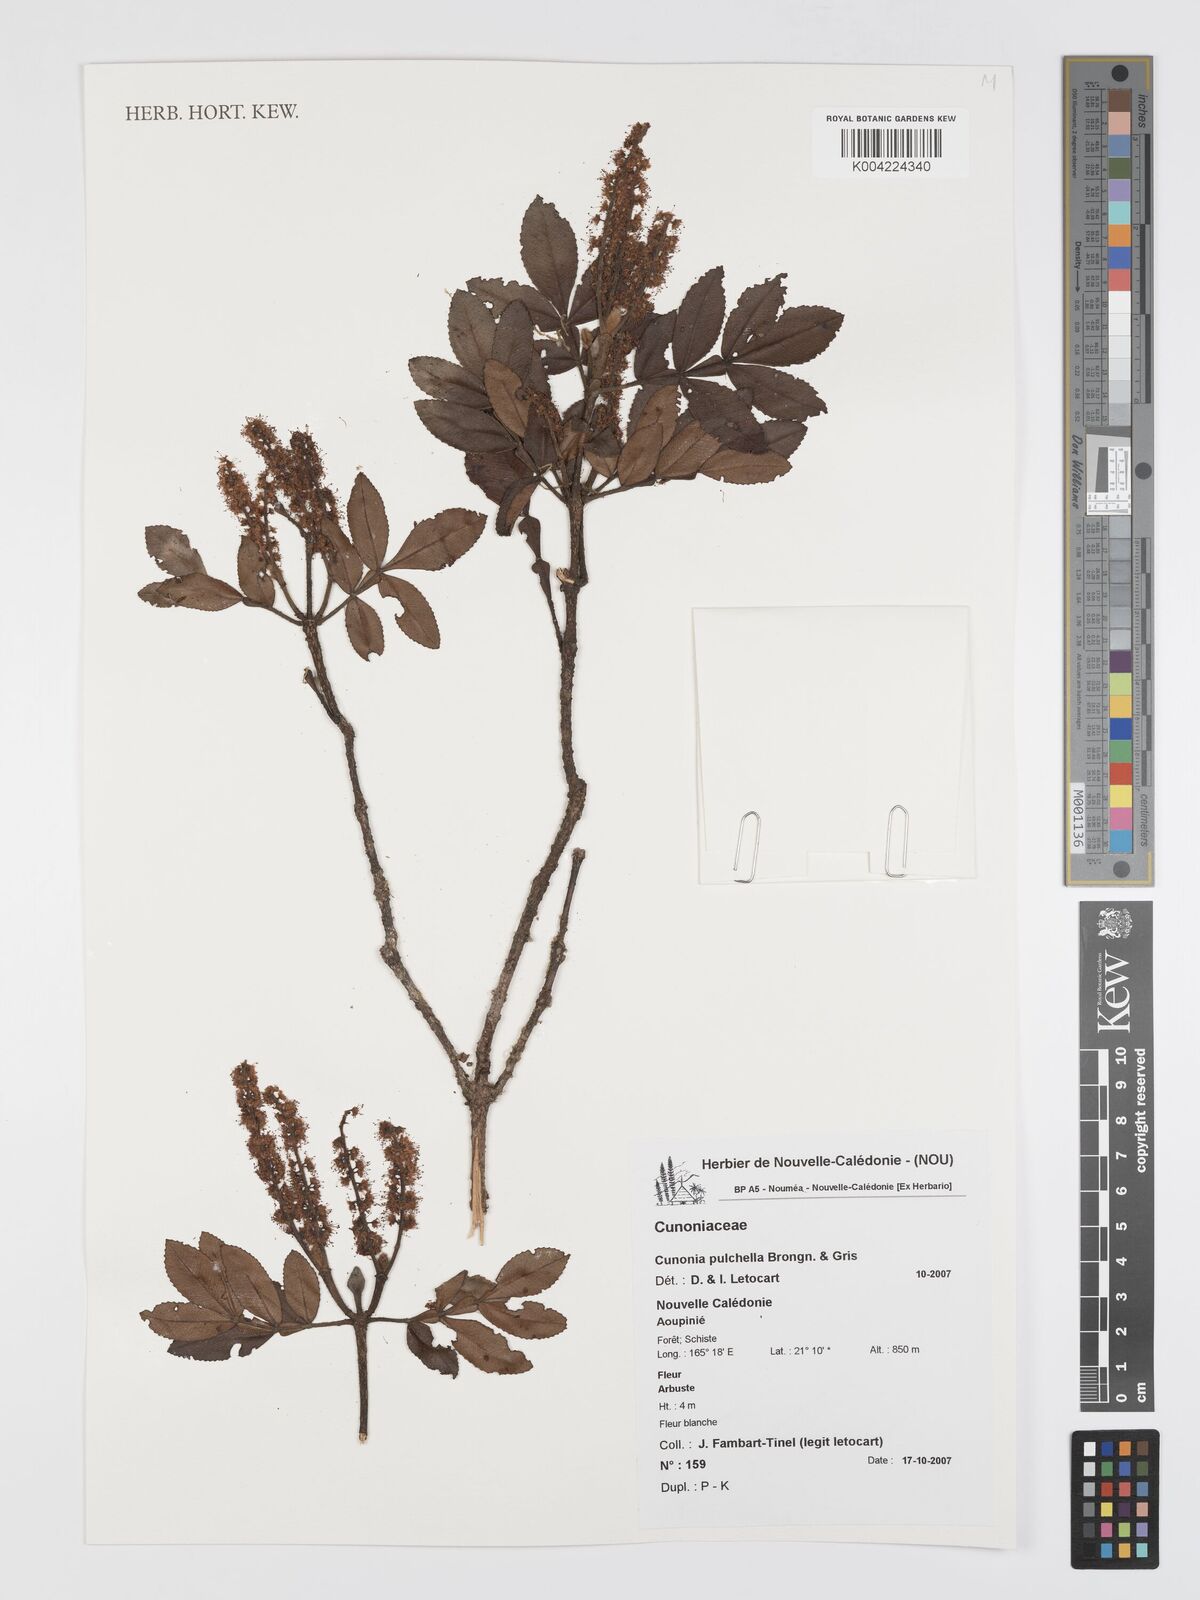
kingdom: Plantae
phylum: Tracheophyta
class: Magnoliopsida
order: Oxalidales
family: Cunoniaceae
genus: Cunonia
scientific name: Cunonia pulchella
